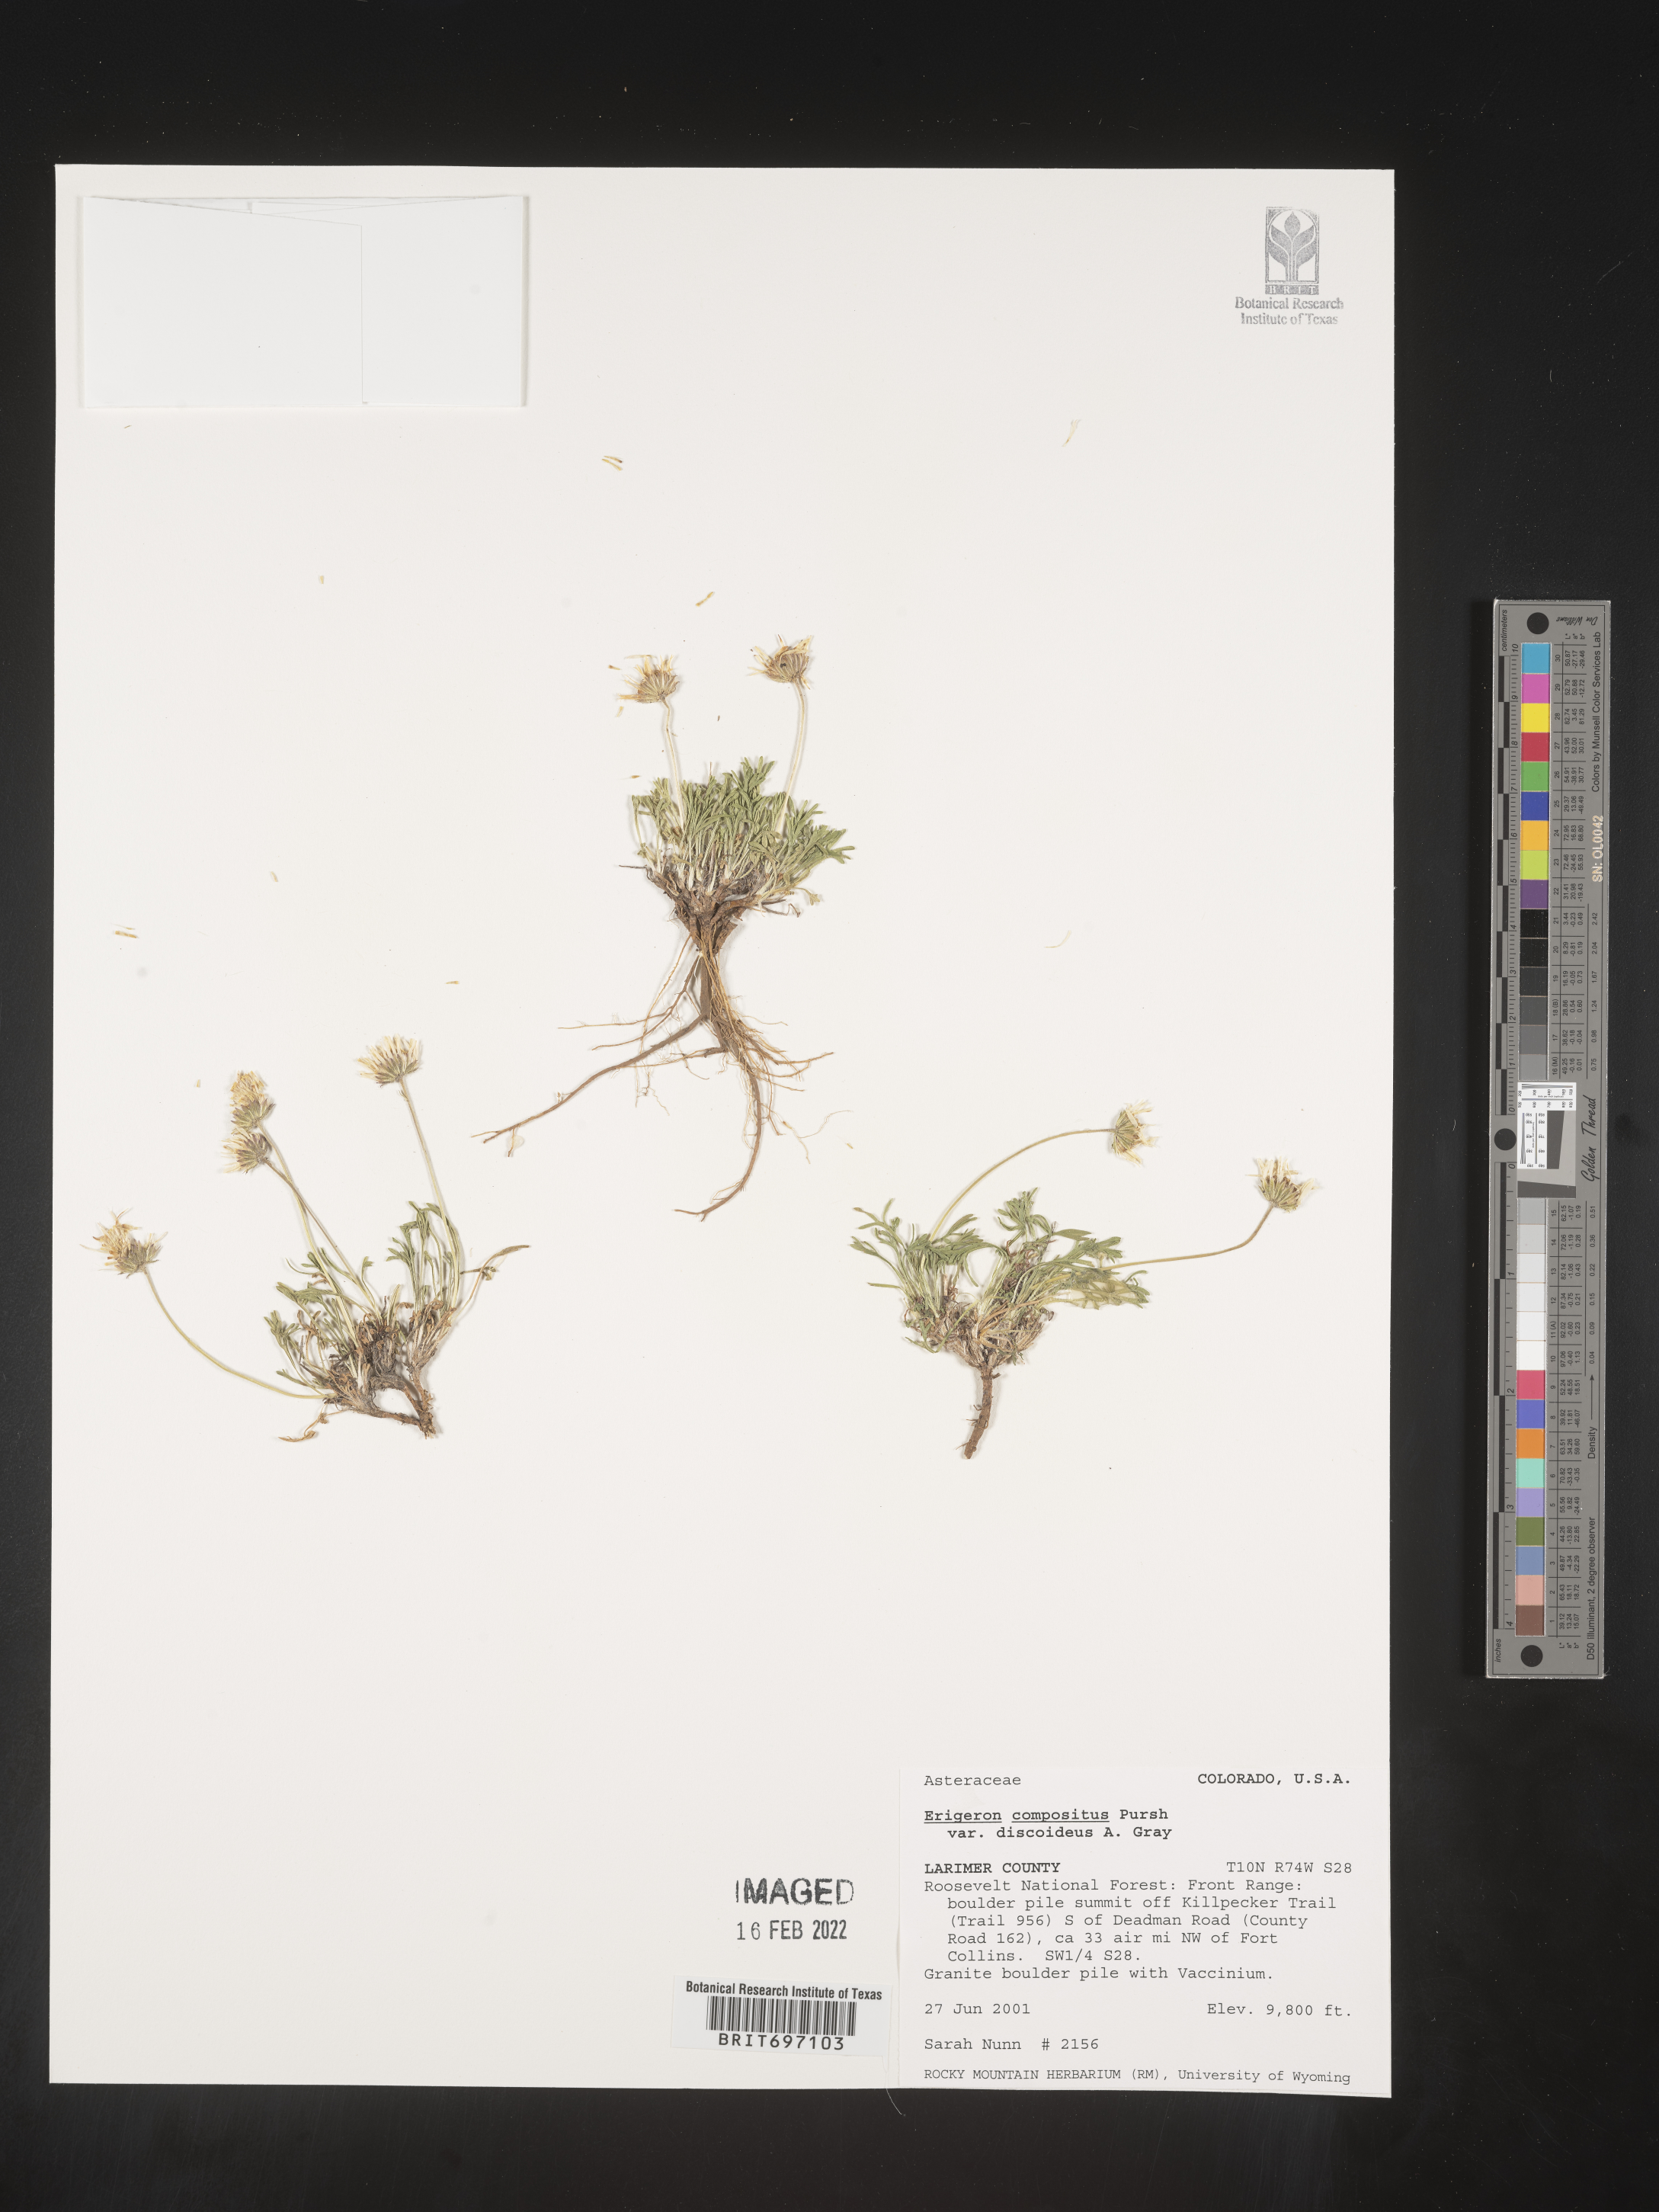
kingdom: Plantae
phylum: Tracheophyta
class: Magnoliopsida
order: Asterales
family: Asteraceae
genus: Erigeron
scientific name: Erigeron compositus
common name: Dwarf mountain fleabane
